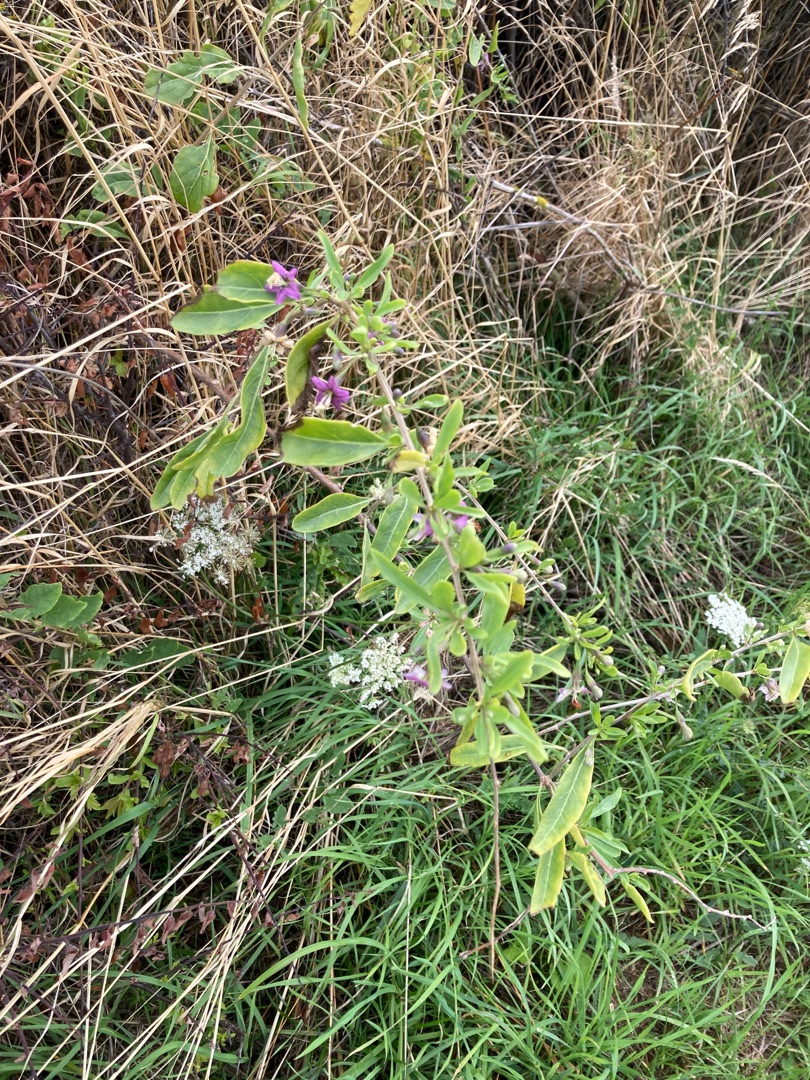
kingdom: Plantae
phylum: Tracheophyta
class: Magnoliopsida
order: Solanales
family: Solanaceae
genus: Lycium
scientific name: Lycium barbarum
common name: Bukketorn
